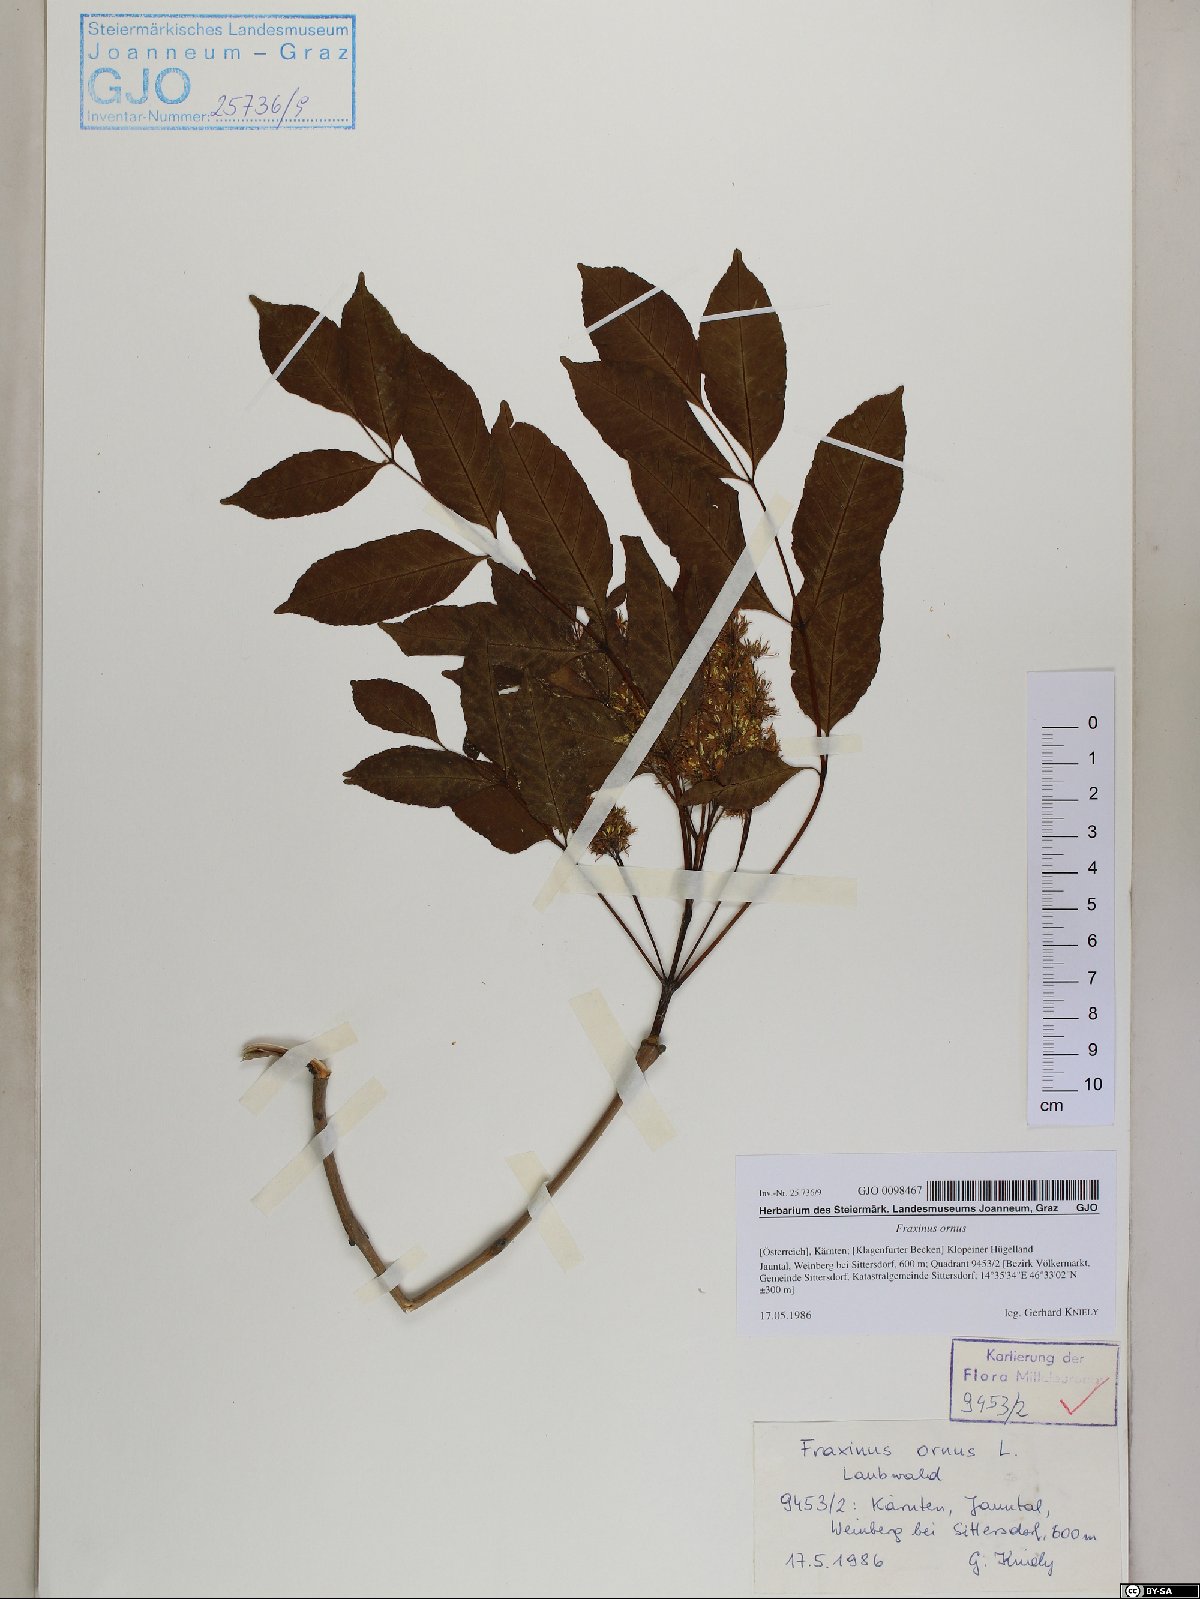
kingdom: Plantae
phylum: Tracheophyta
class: Magnoliopsida
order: Lamiales
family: Oleaceae
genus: Fraxinus
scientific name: Fraxinus ornus
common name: Manna ash
